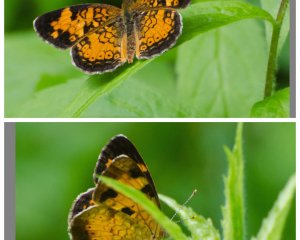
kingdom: Animalia
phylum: Arthropoda
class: Insecta
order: Lepidoptera
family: Nymphalidae
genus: Phyciodes
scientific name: Phyciodes tharos
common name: Northern Crescent
